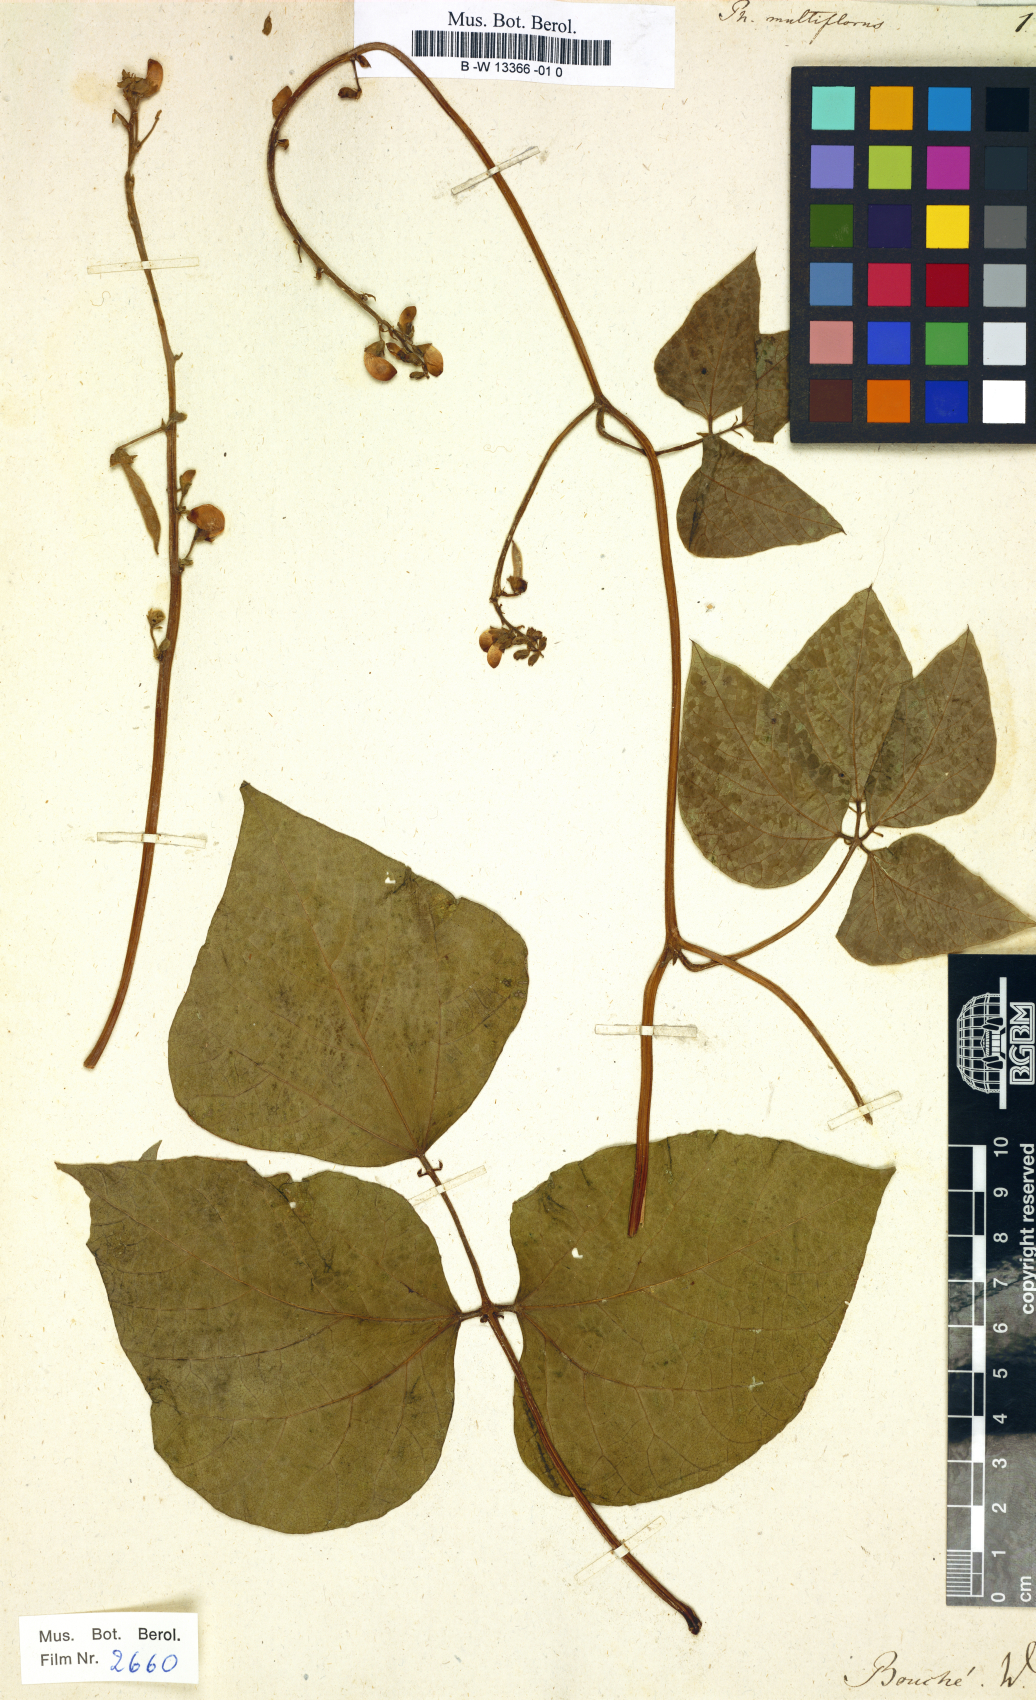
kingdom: Plantae
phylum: Tracheophyta
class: Magnoliopsida
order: Fabales
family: Fabaceae
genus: Phaseolus
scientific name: Phaseolus
